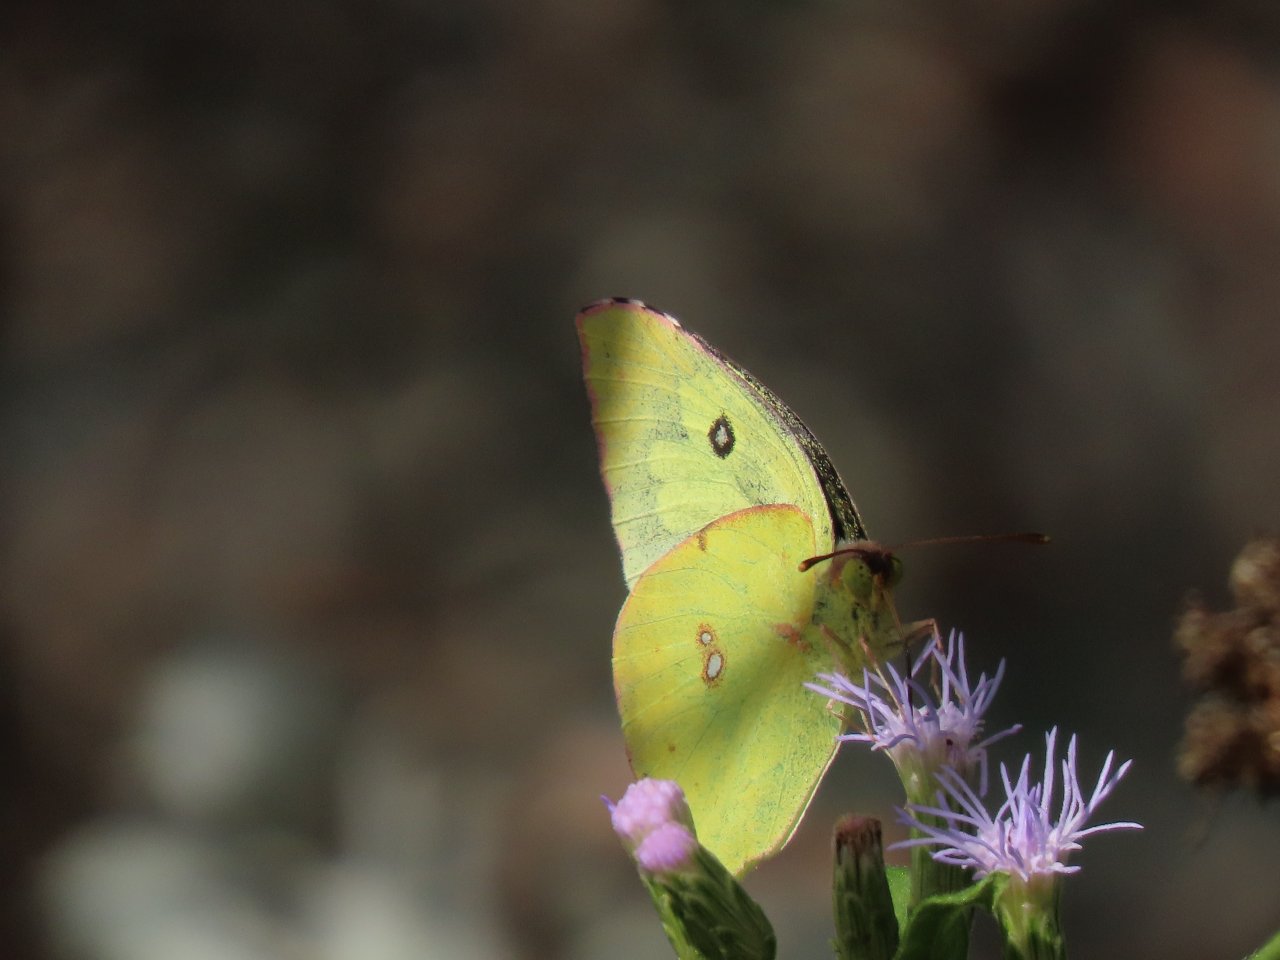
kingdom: Animalia
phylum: Arthropoda
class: Insecta
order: Lepidoptera
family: Pieridae
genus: Zerene
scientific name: Zerene cesonia
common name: Southern Dogface
